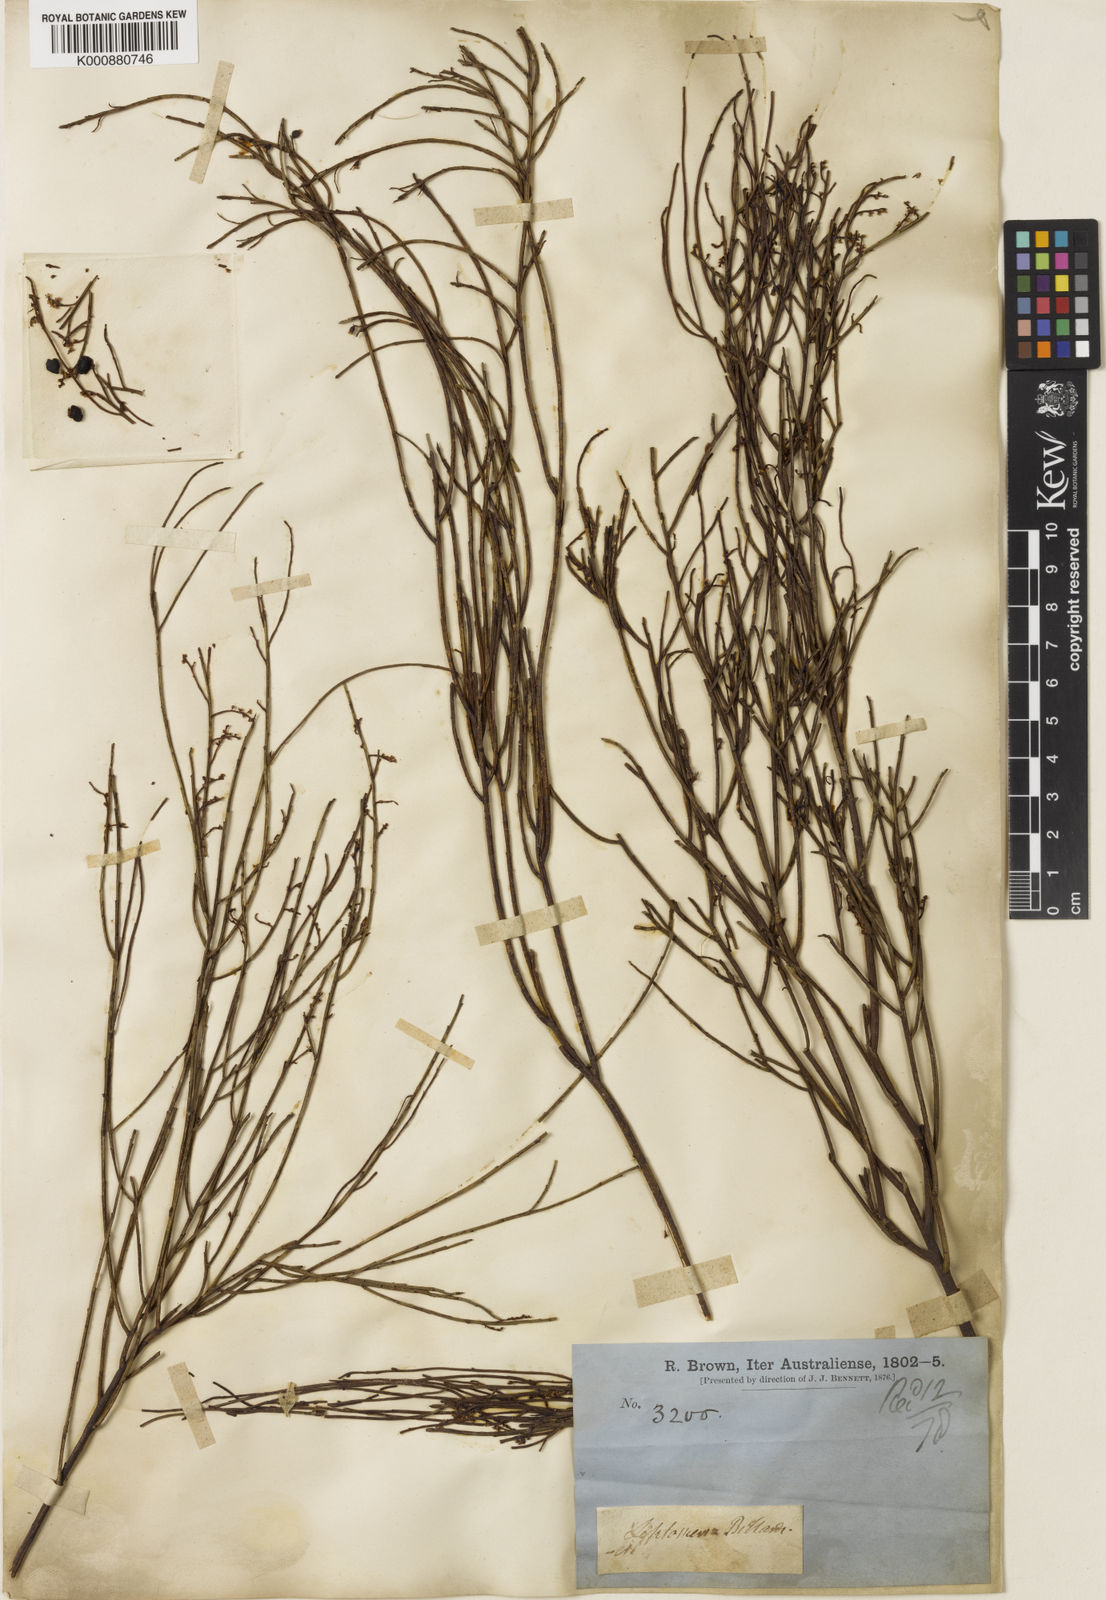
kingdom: Plantae
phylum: Tracheophyta
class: Magnoliopsida
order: Santalales
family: Amphorogynaceae
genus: Leptomeria
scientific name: Leptomeria drupacea
